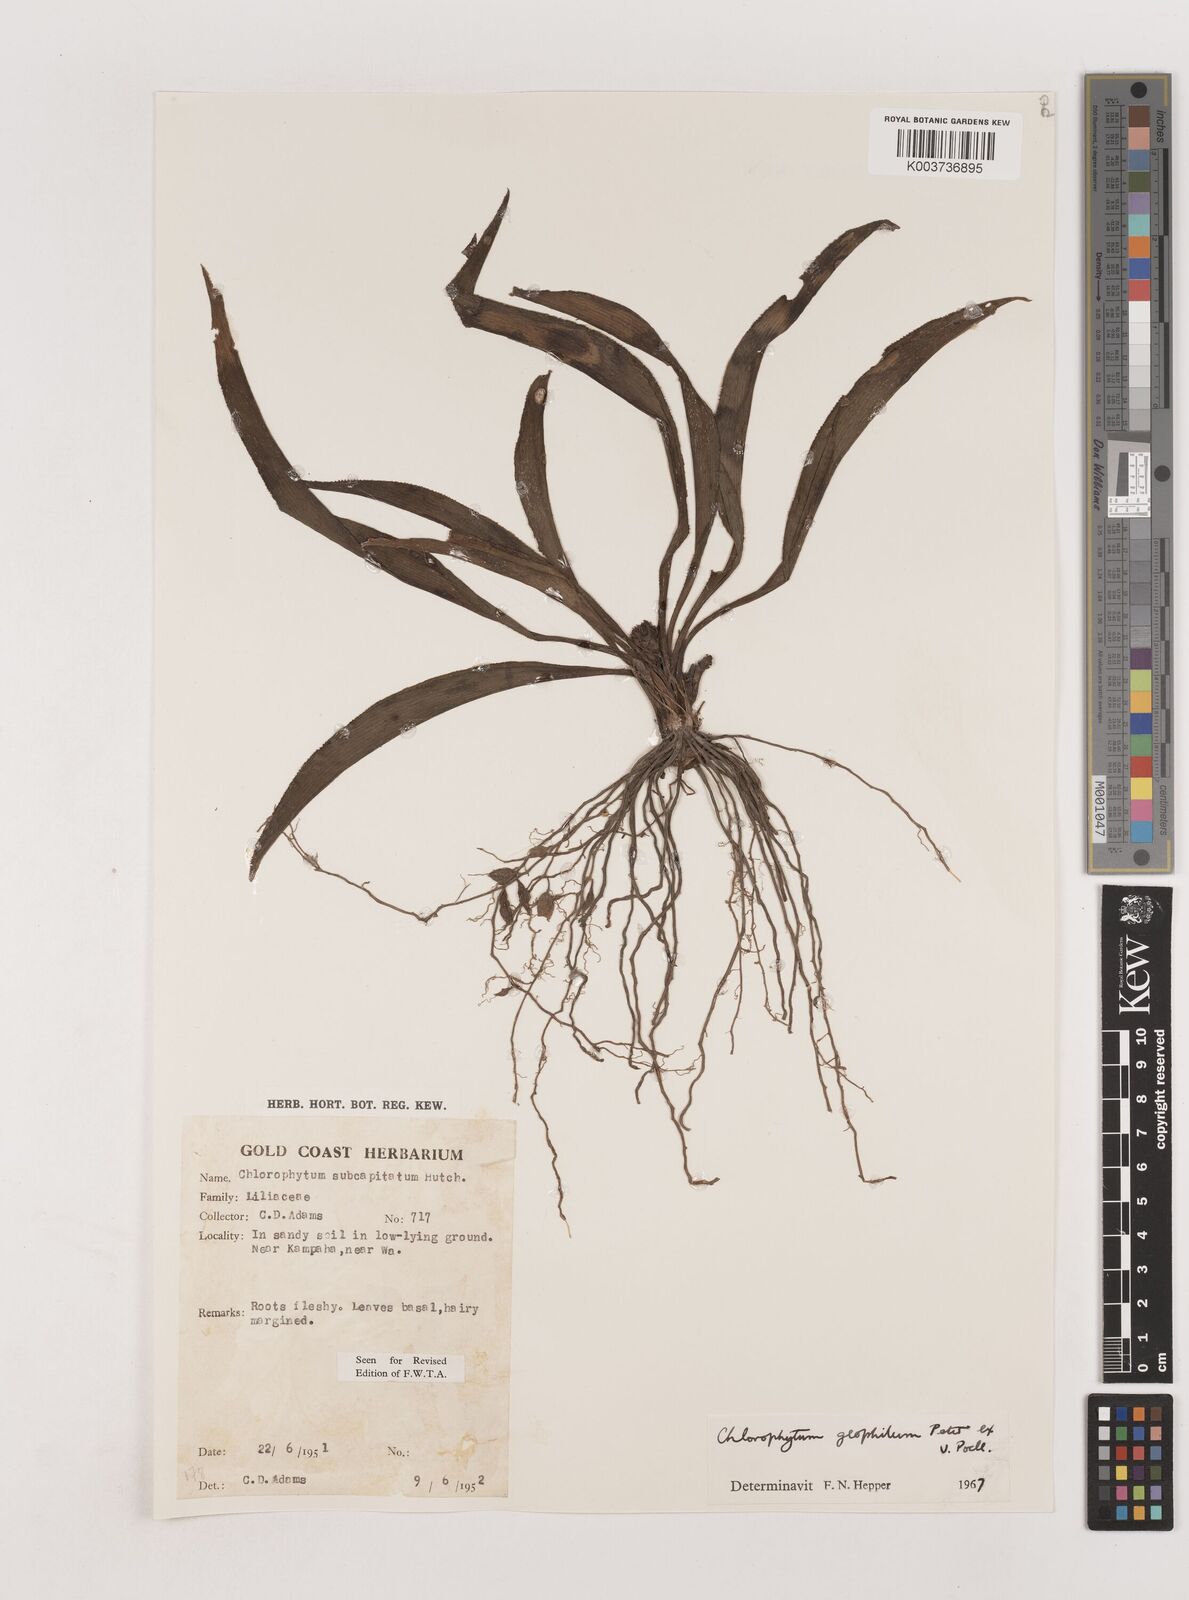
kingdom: Plantae
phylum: Tracheophyta
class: Liliopsida
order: Asparagales
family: Asparagaceae
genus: Chlorophytum
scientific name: Chlorophytum geophilum
